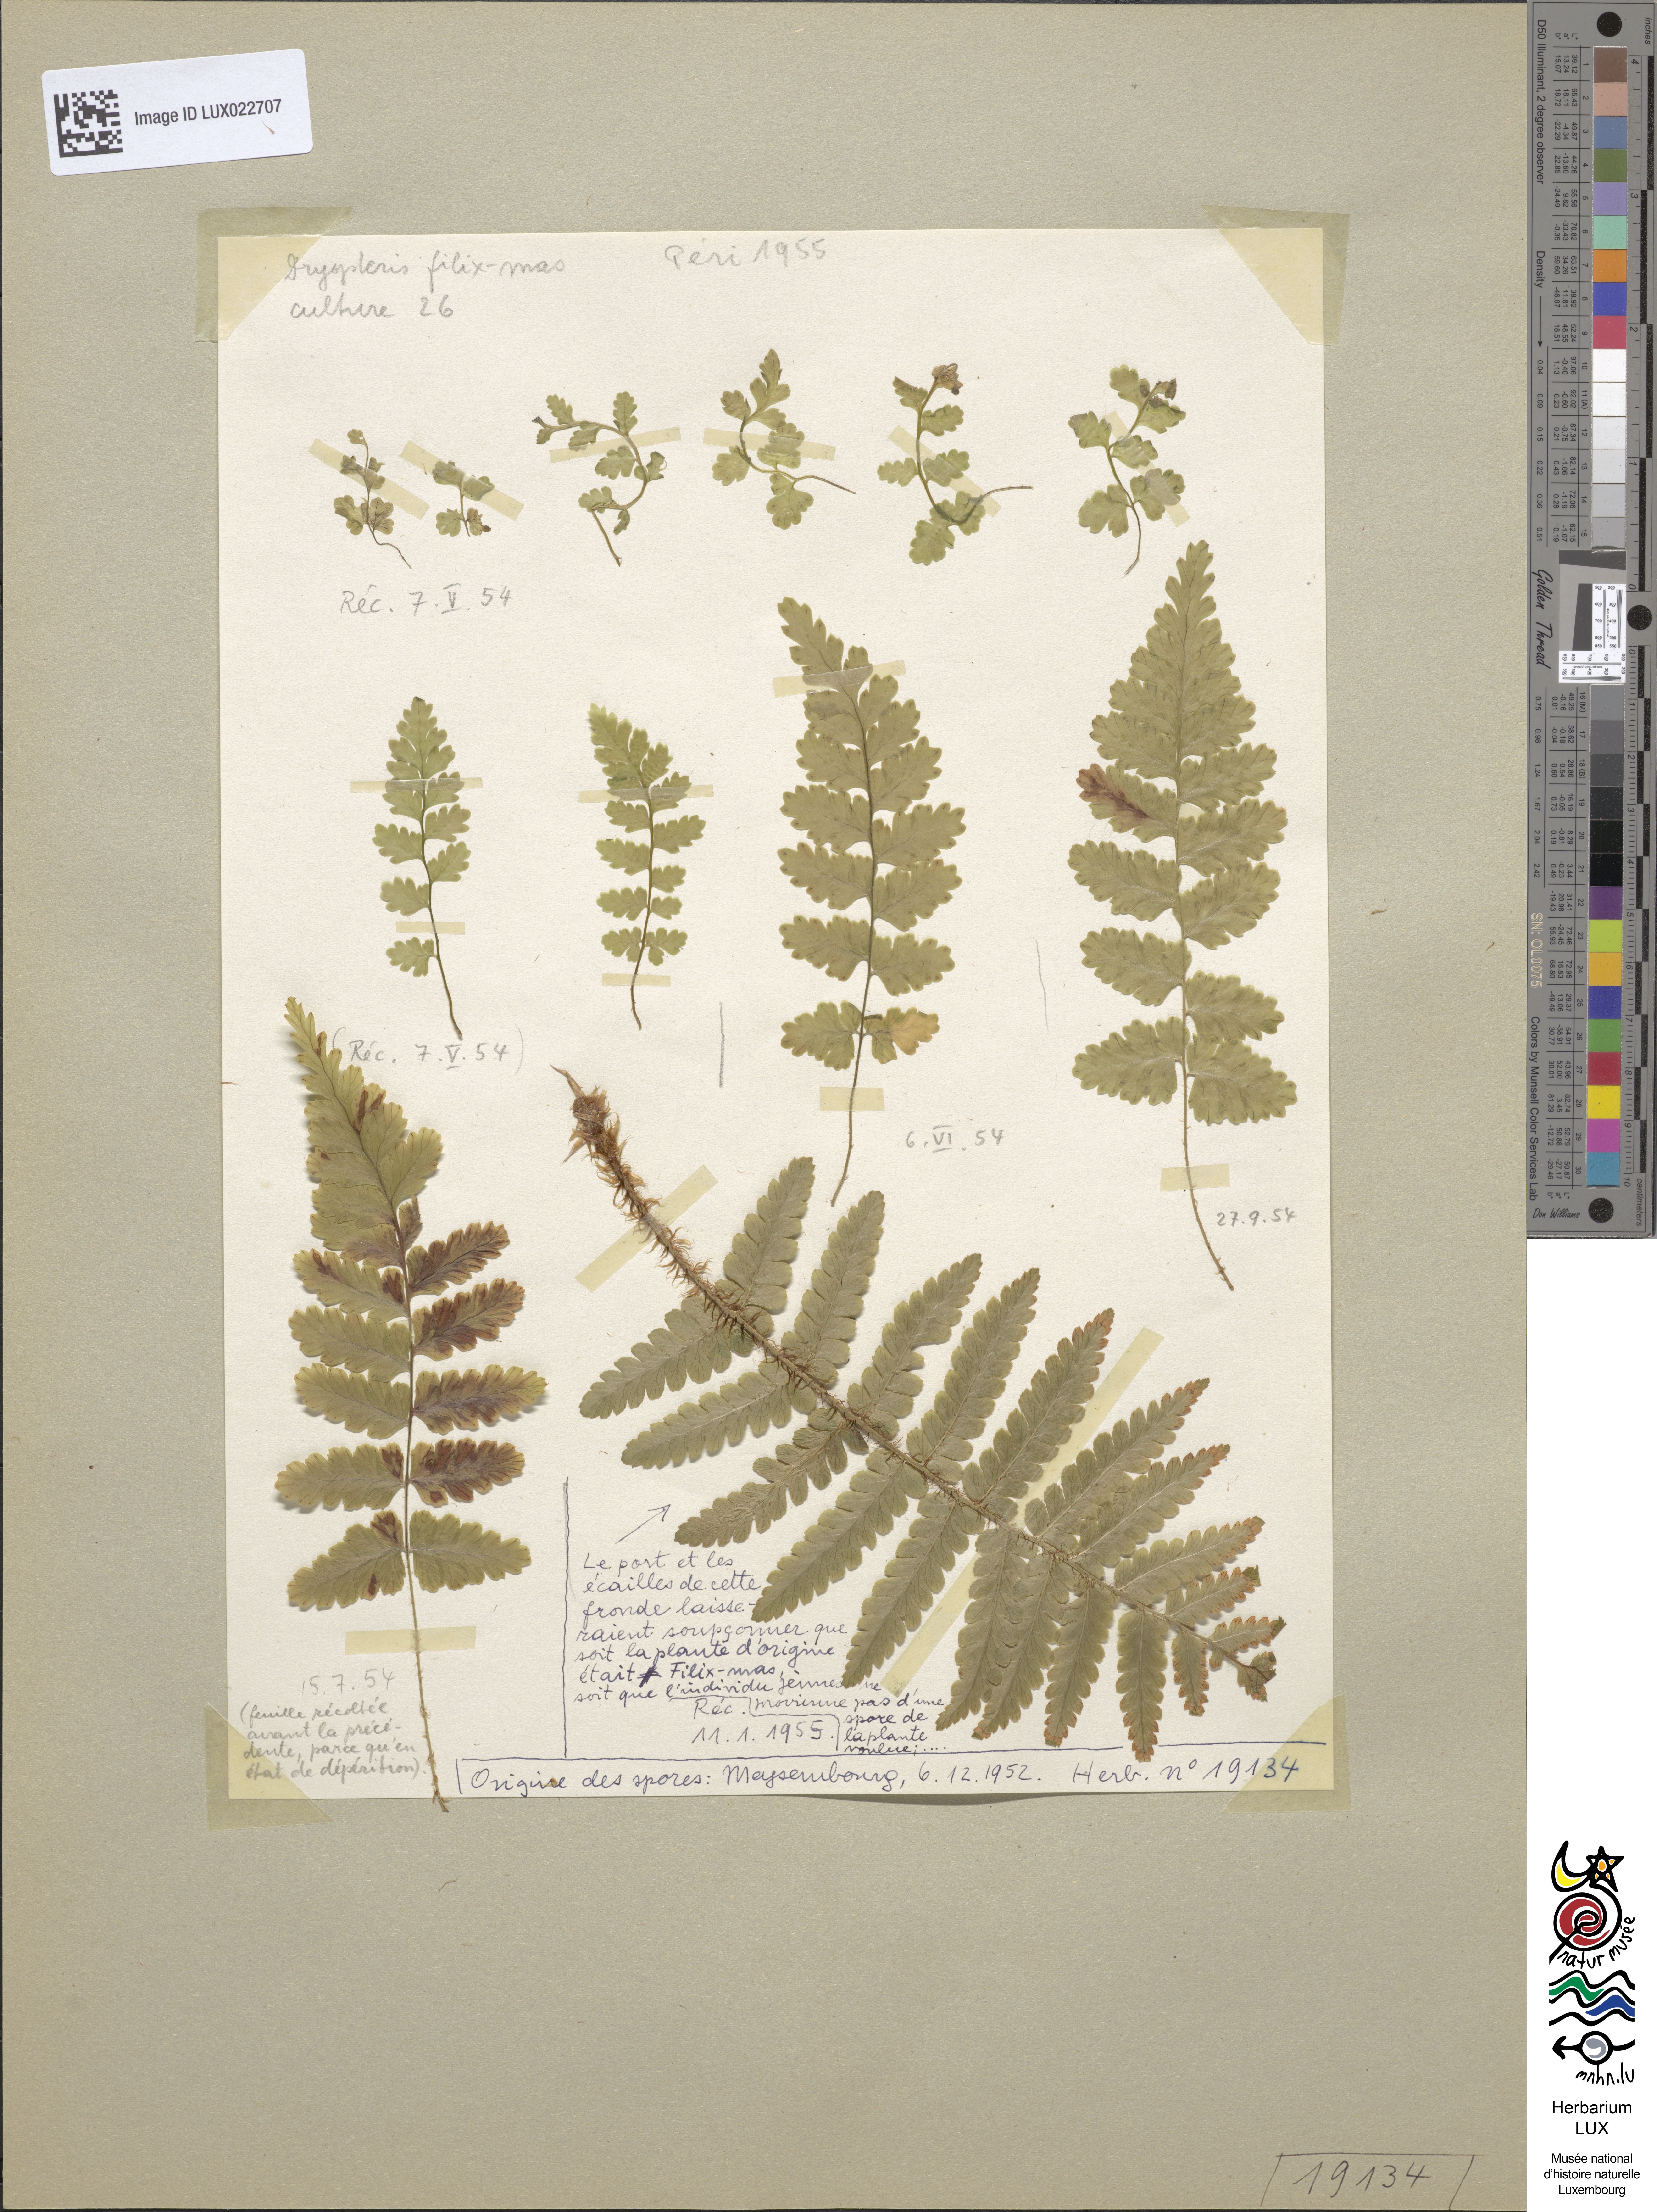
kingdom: Plantae
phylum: Tracheophyta
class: Polypodiopsida
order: Polypodiales
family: Dryopteridaceae
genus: Dryopteris
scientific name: Dryopteris filix-mas
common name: Male fern
